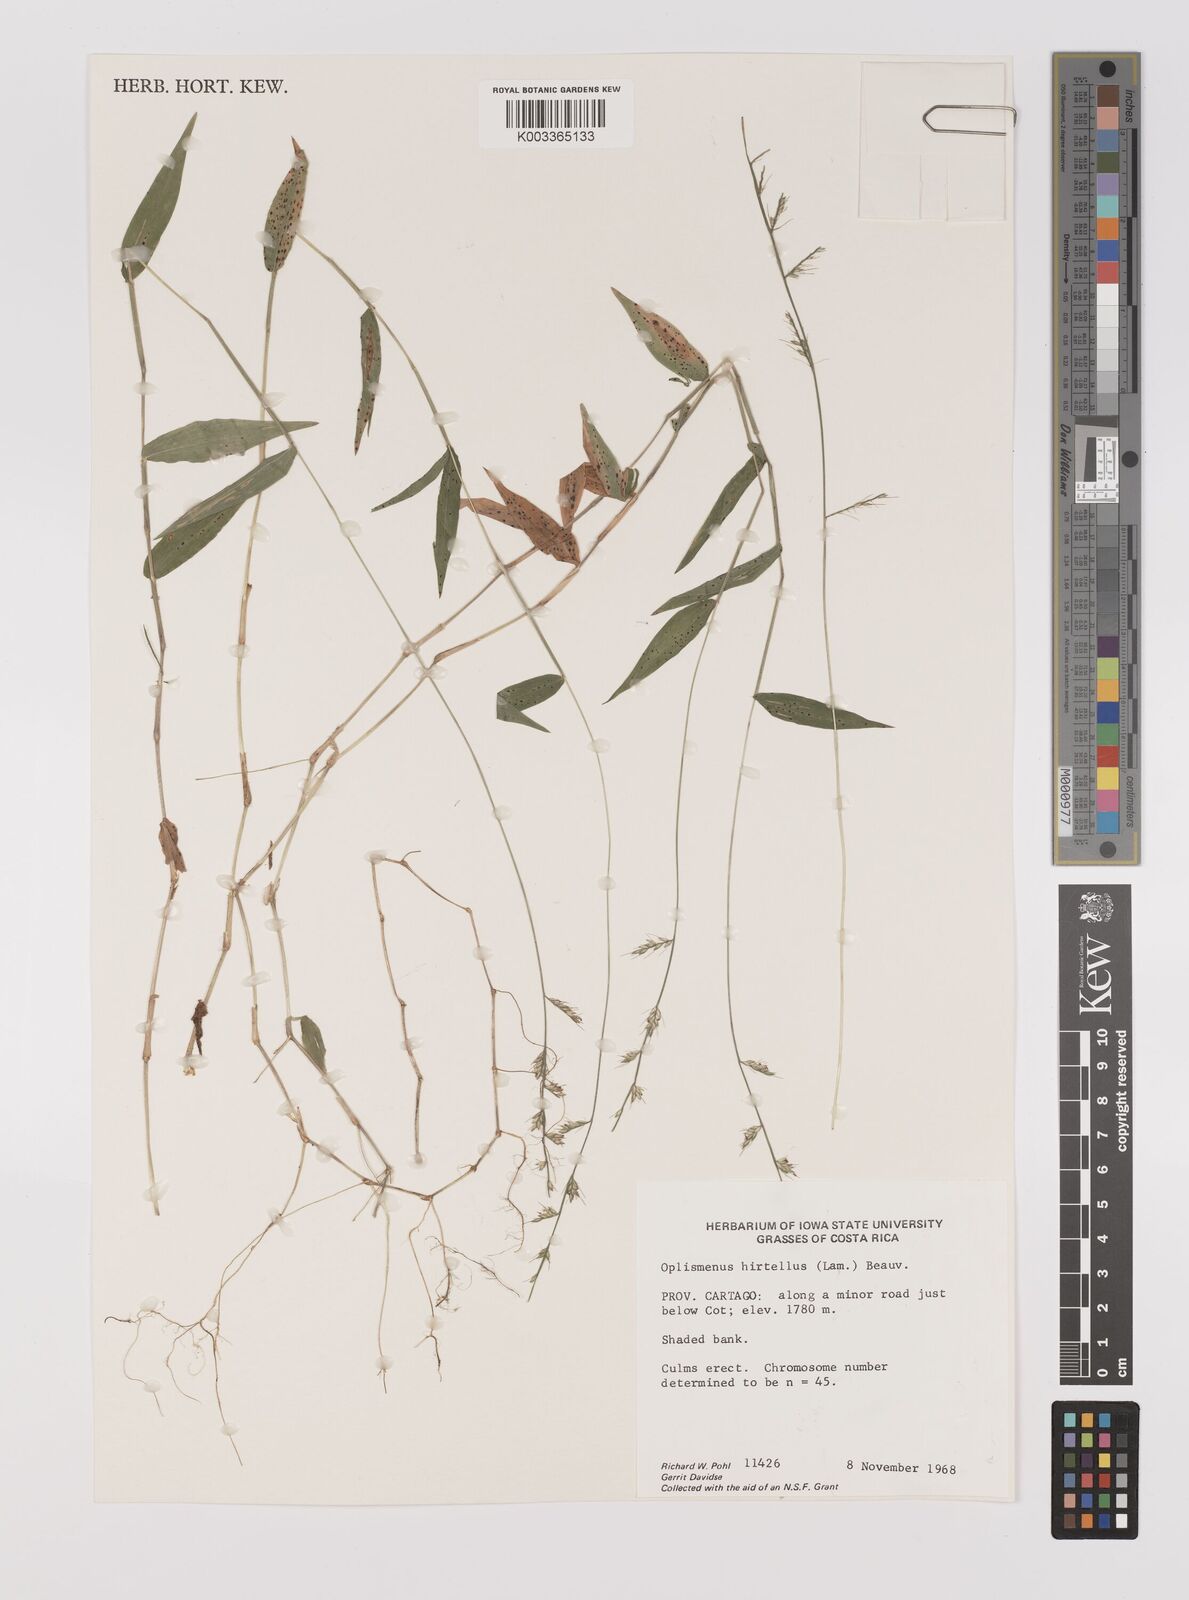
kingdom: Plantae
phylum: Tracheophyta
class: Liliopsida
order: Poales
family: Poaceae
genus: Oplismenus
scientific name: Oplismenus hirtellus
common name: Basketgrass
